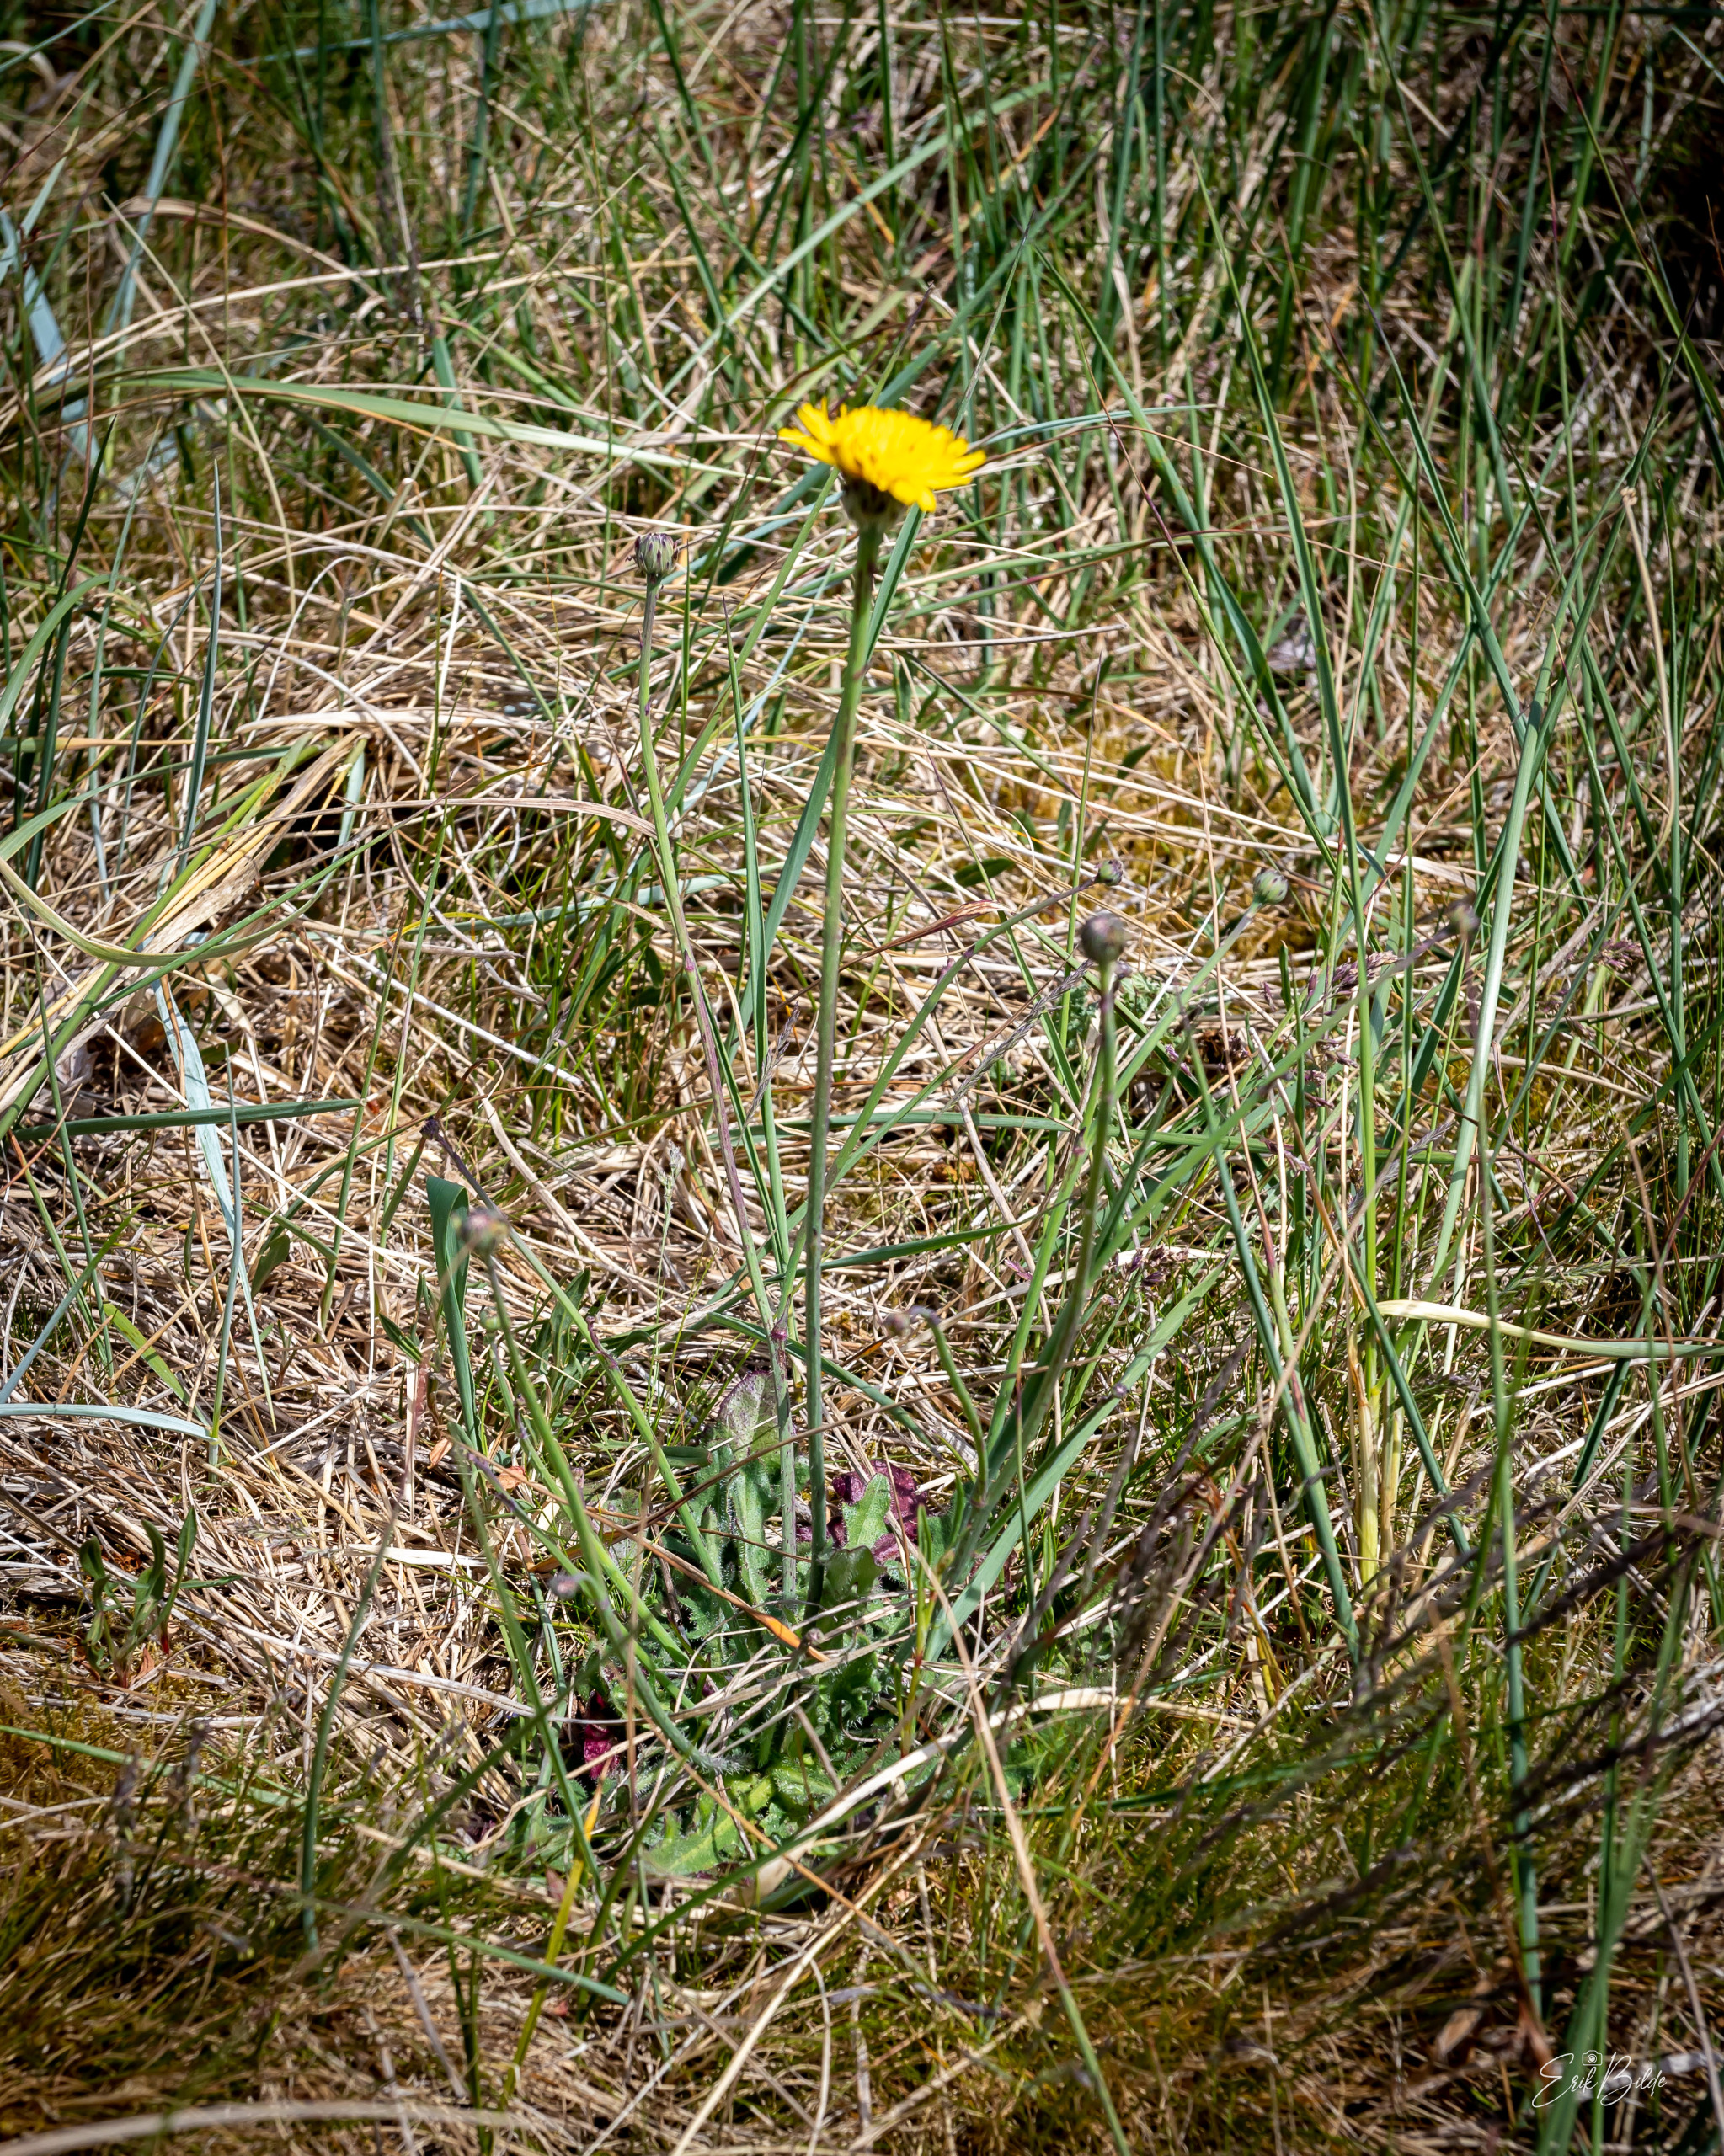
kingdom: Plantae
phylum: Tracheophyta
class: Magnoliopsida
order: Asterales
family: Asteraceae
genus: Hypochaeris
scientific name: Hypochaeris radicata
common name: Almindelig kongepen
